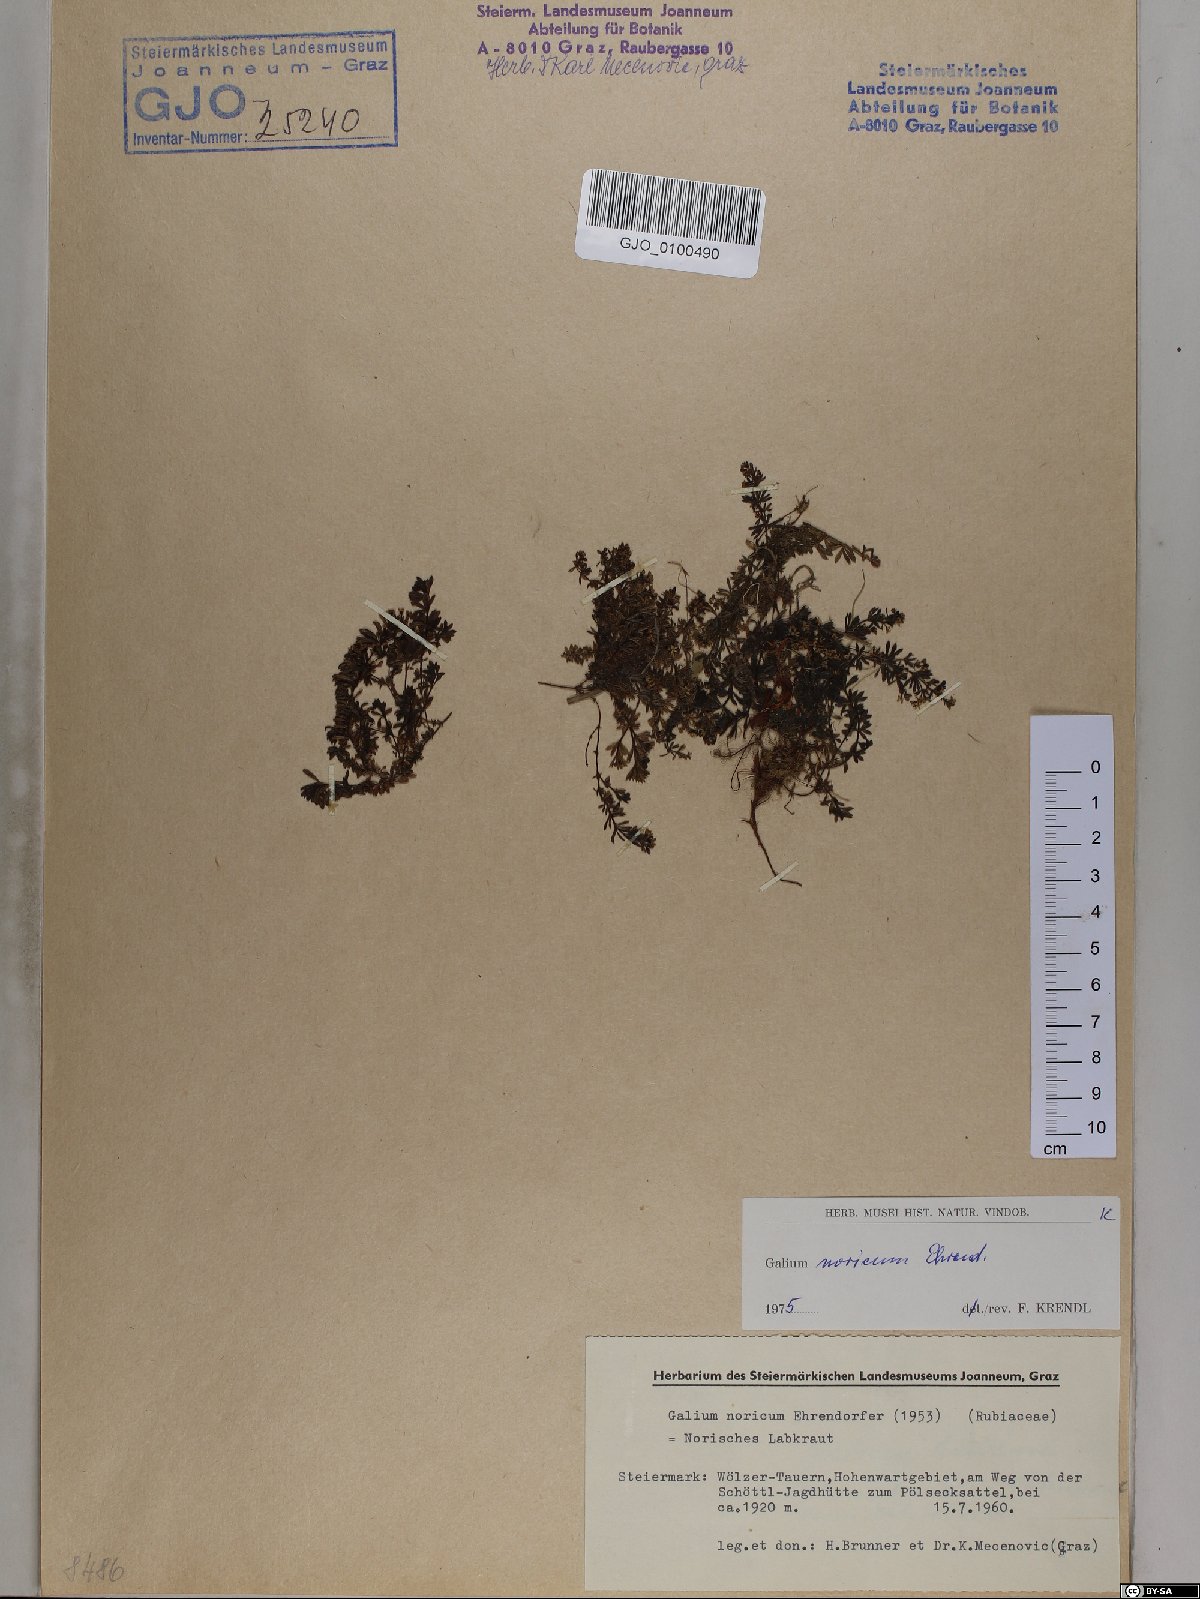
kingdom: Plantae
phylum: Tracheophyta
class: Magnoliopsida
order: Gentianales
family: Rubiaceae
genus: Galium
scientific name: Galium noricum
